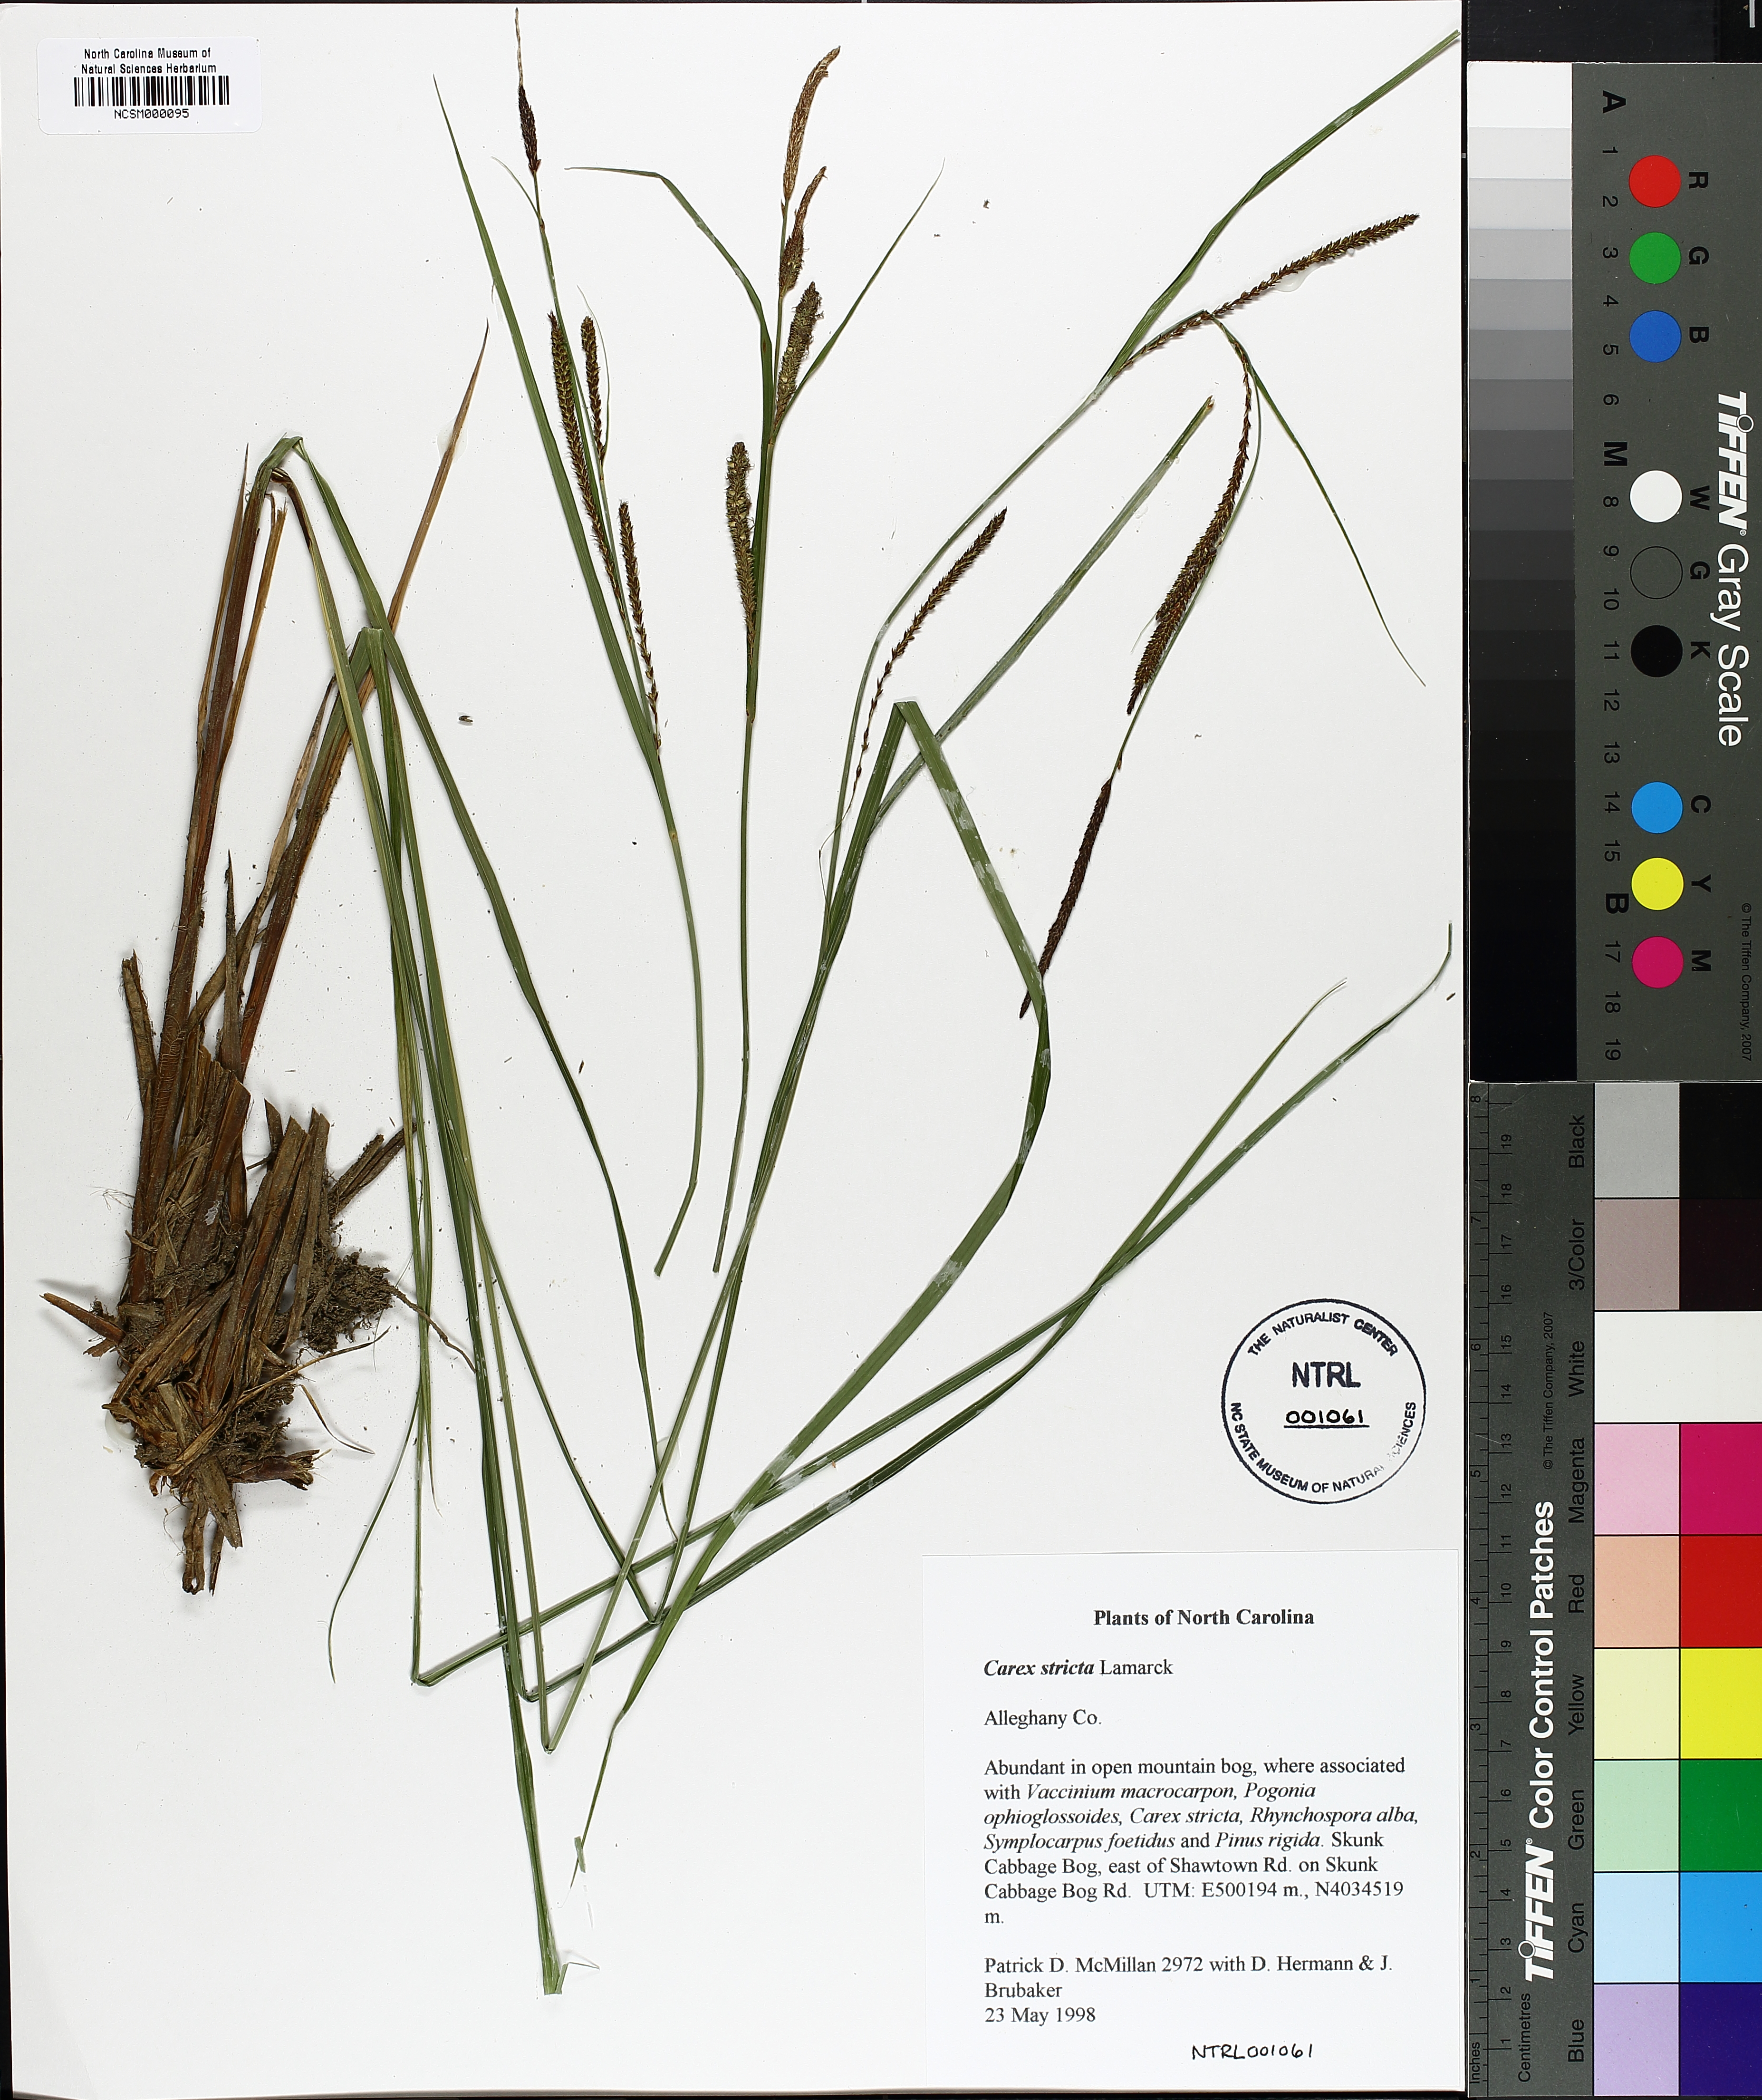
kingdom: Plantae
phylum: Tracheophyta
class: Liliopsida
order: Poales
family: Cyperaceae
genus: Carex
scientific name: Carex stricta
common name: Hummock sedge
